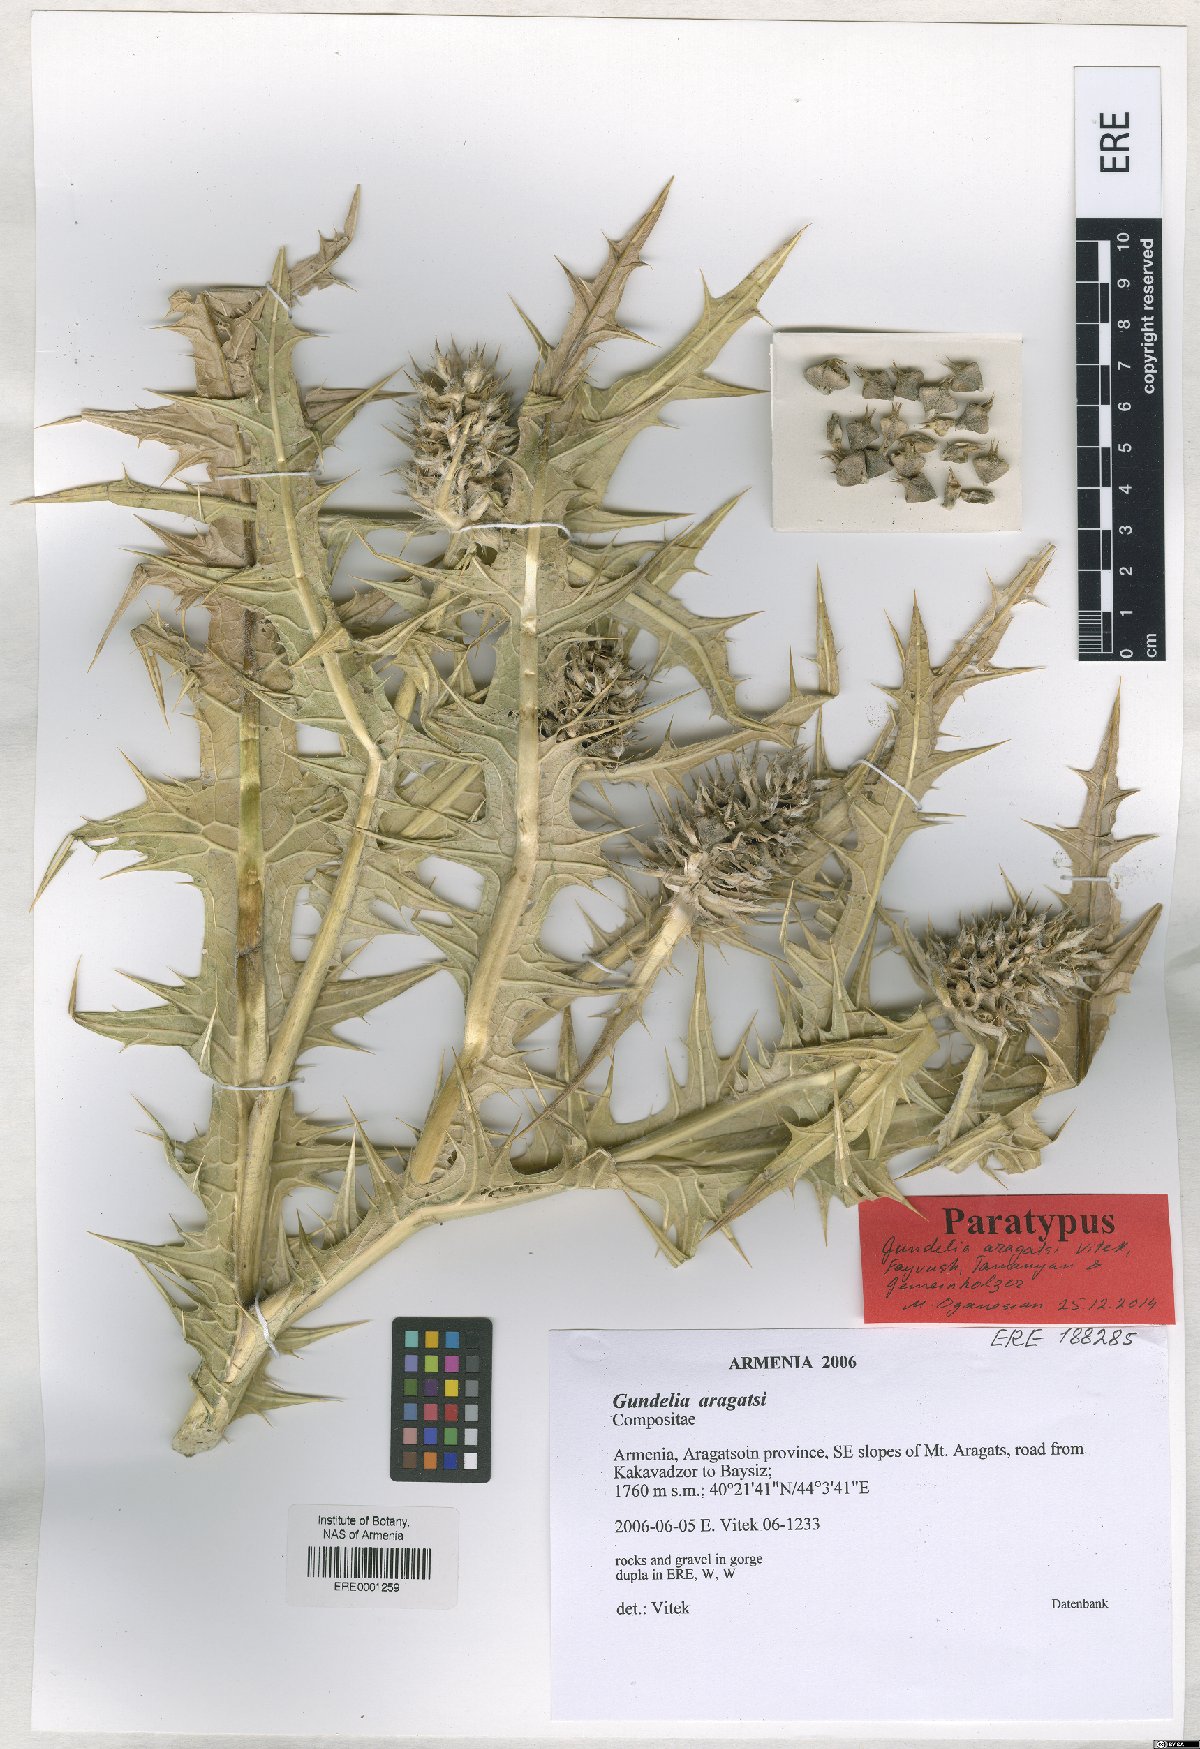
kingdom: Plantae
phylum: Tracheophyta
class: Magnoliopsida
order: Asterales
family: Asteraceae
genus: Gundelia
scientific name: Gundelia aragatsi
